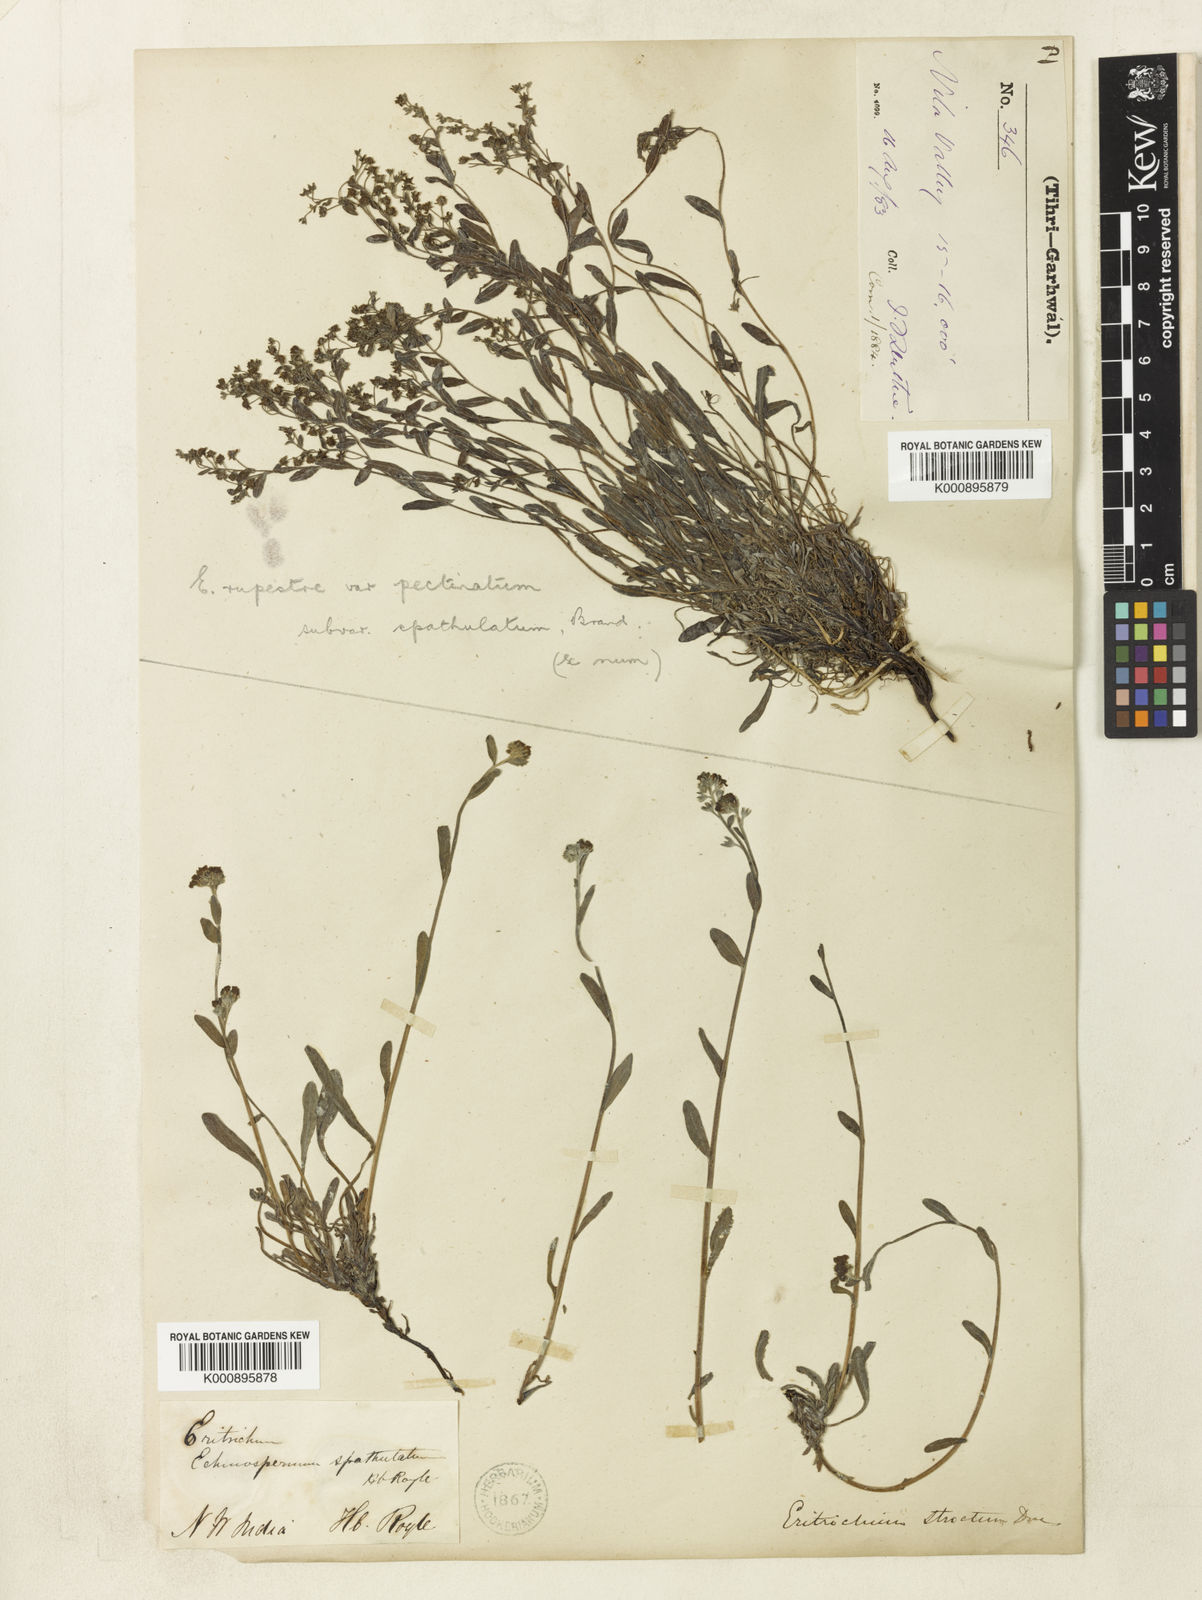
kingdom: Plantae
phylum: Tracheophyta
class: Magnoliopsida
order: Boraginales
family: Boraginaceae
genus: Eritrichium
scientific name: Eritrichium spathulatum
